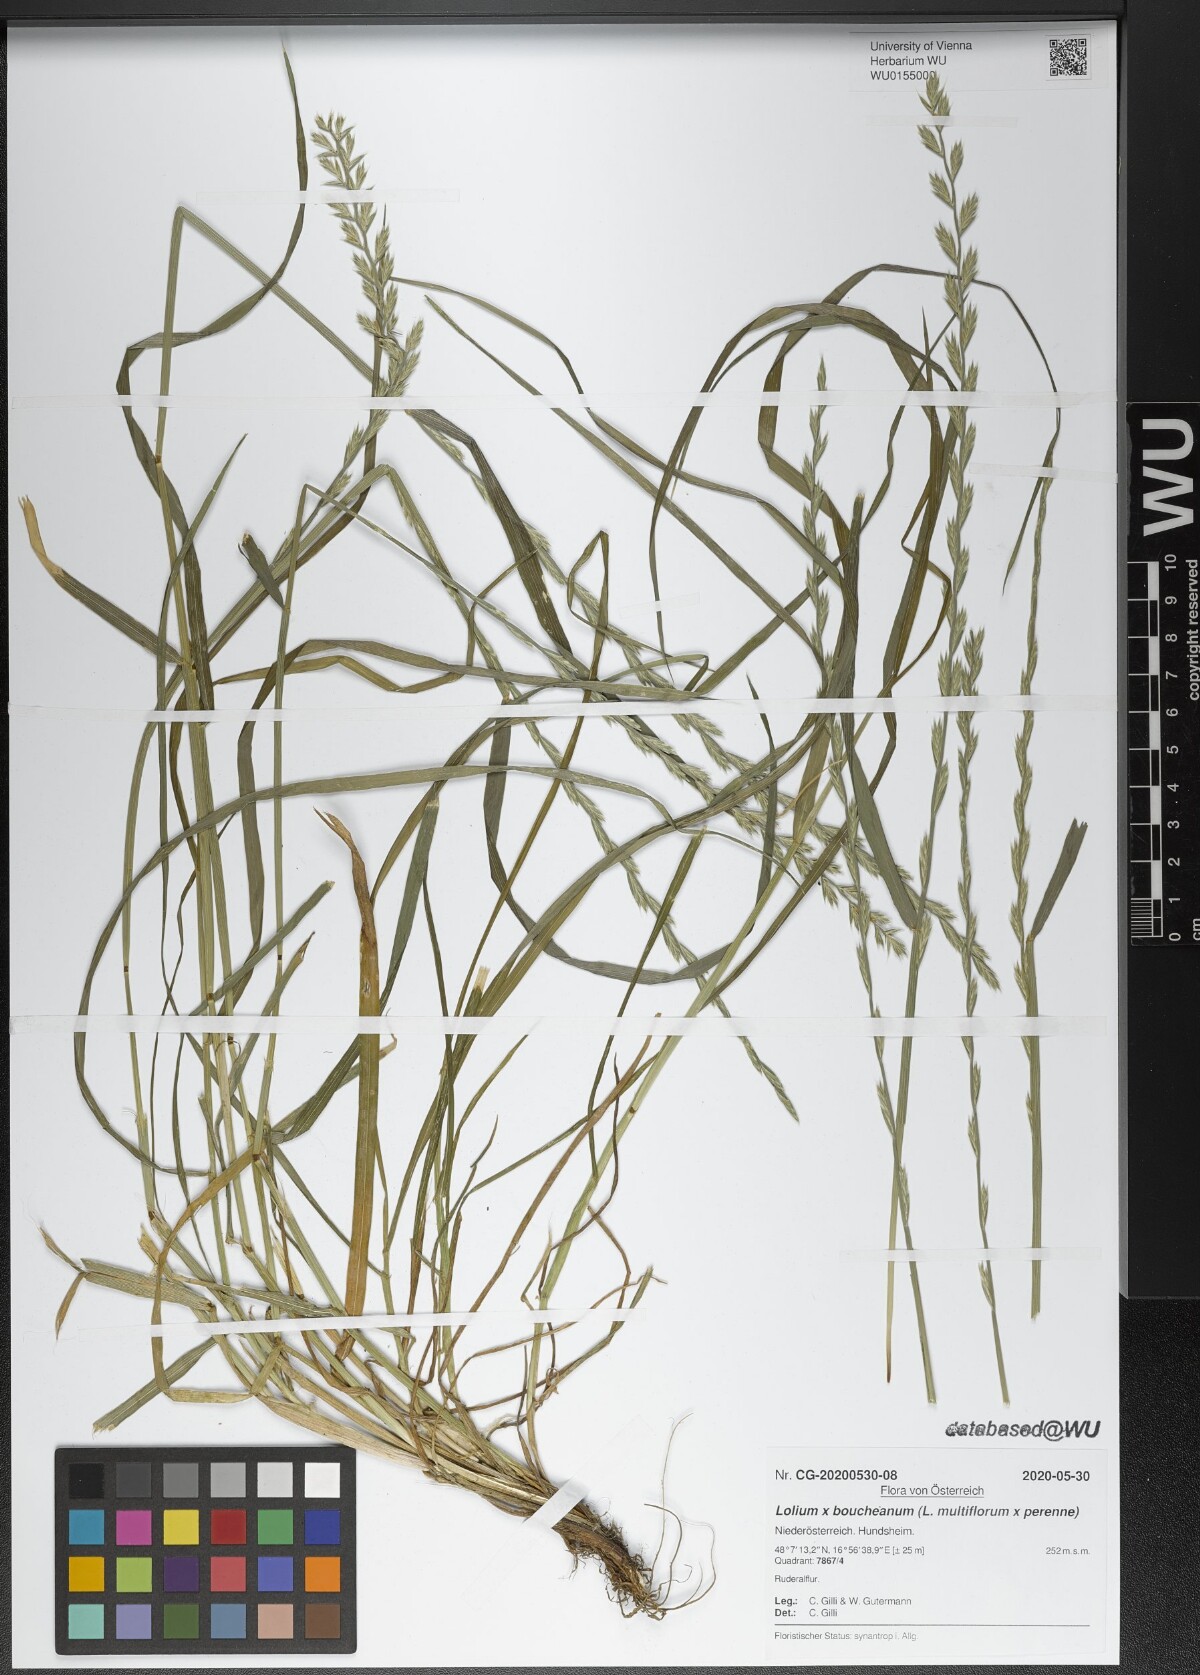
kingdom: Plantae
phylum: Tracheophyta
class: Liliopsida
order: Poales
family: Poaceae
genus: Lolium
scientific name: Lolium boucheanum
